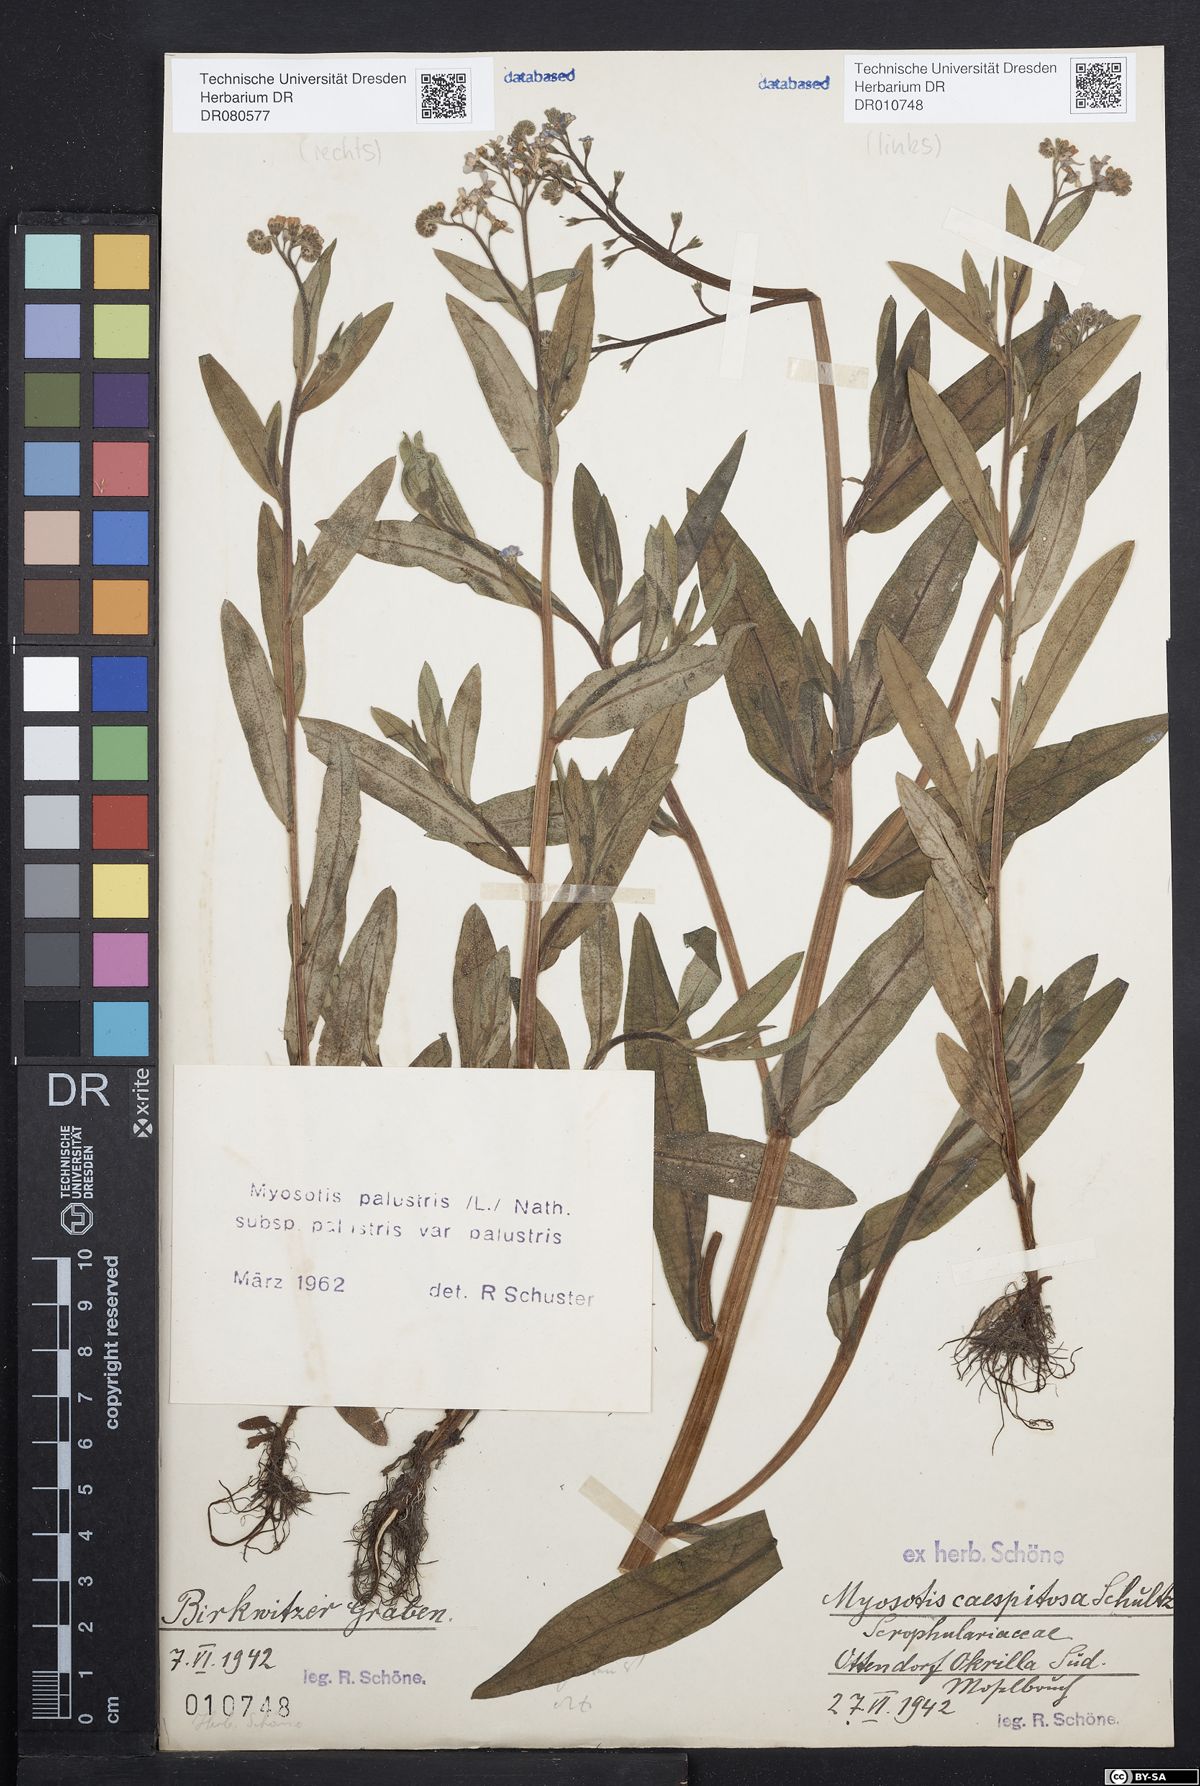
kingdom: Plantae
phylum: Tracheophyta
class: Magnoliopsida
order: Boraginales
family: Boraginaceae
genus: Myosotis
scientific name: Myosotis scorpioides
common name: Water forget-me-not
